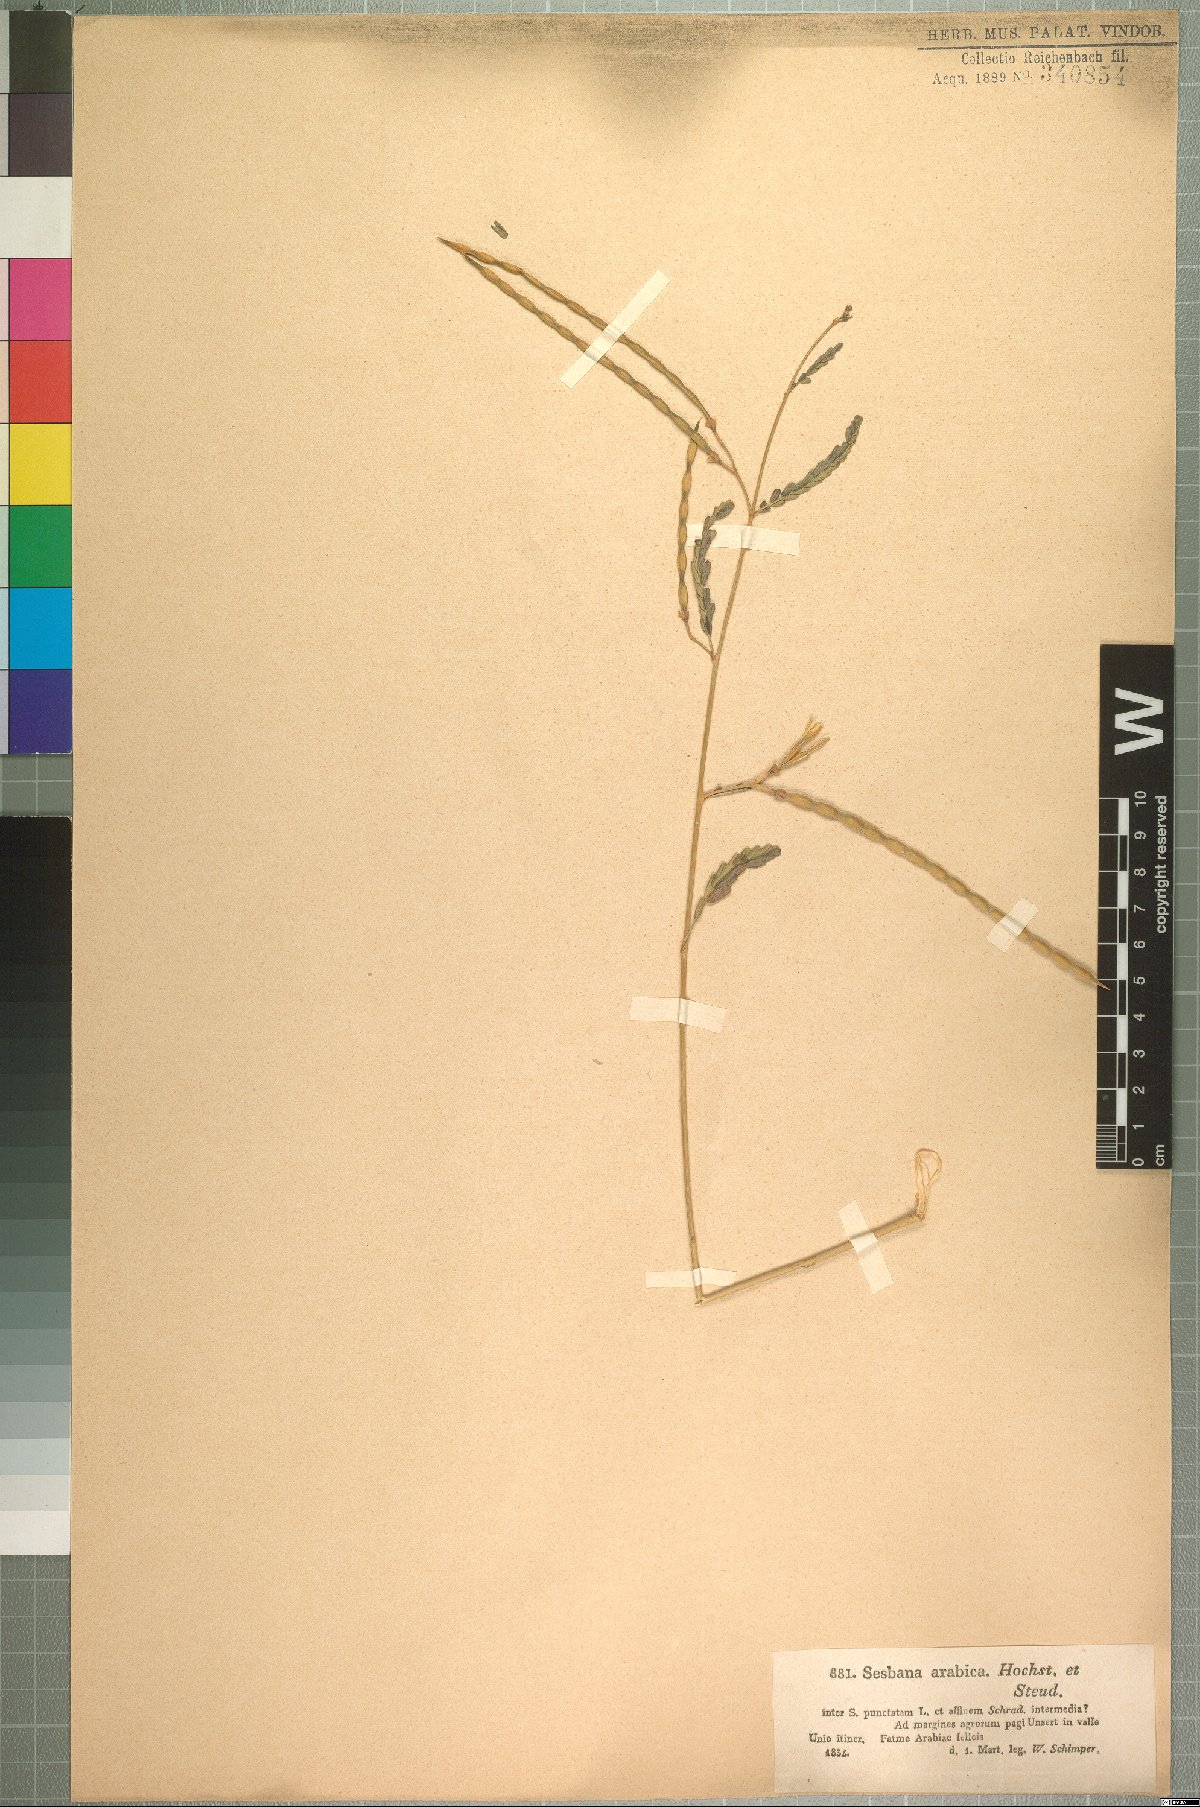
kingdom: Plantae
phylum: Tracheophyta
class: Magnoliopsida
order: Fabales
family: Fabaceae
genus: Sesbania
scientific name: Sesbania leptocarpa
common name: Riverhemp
